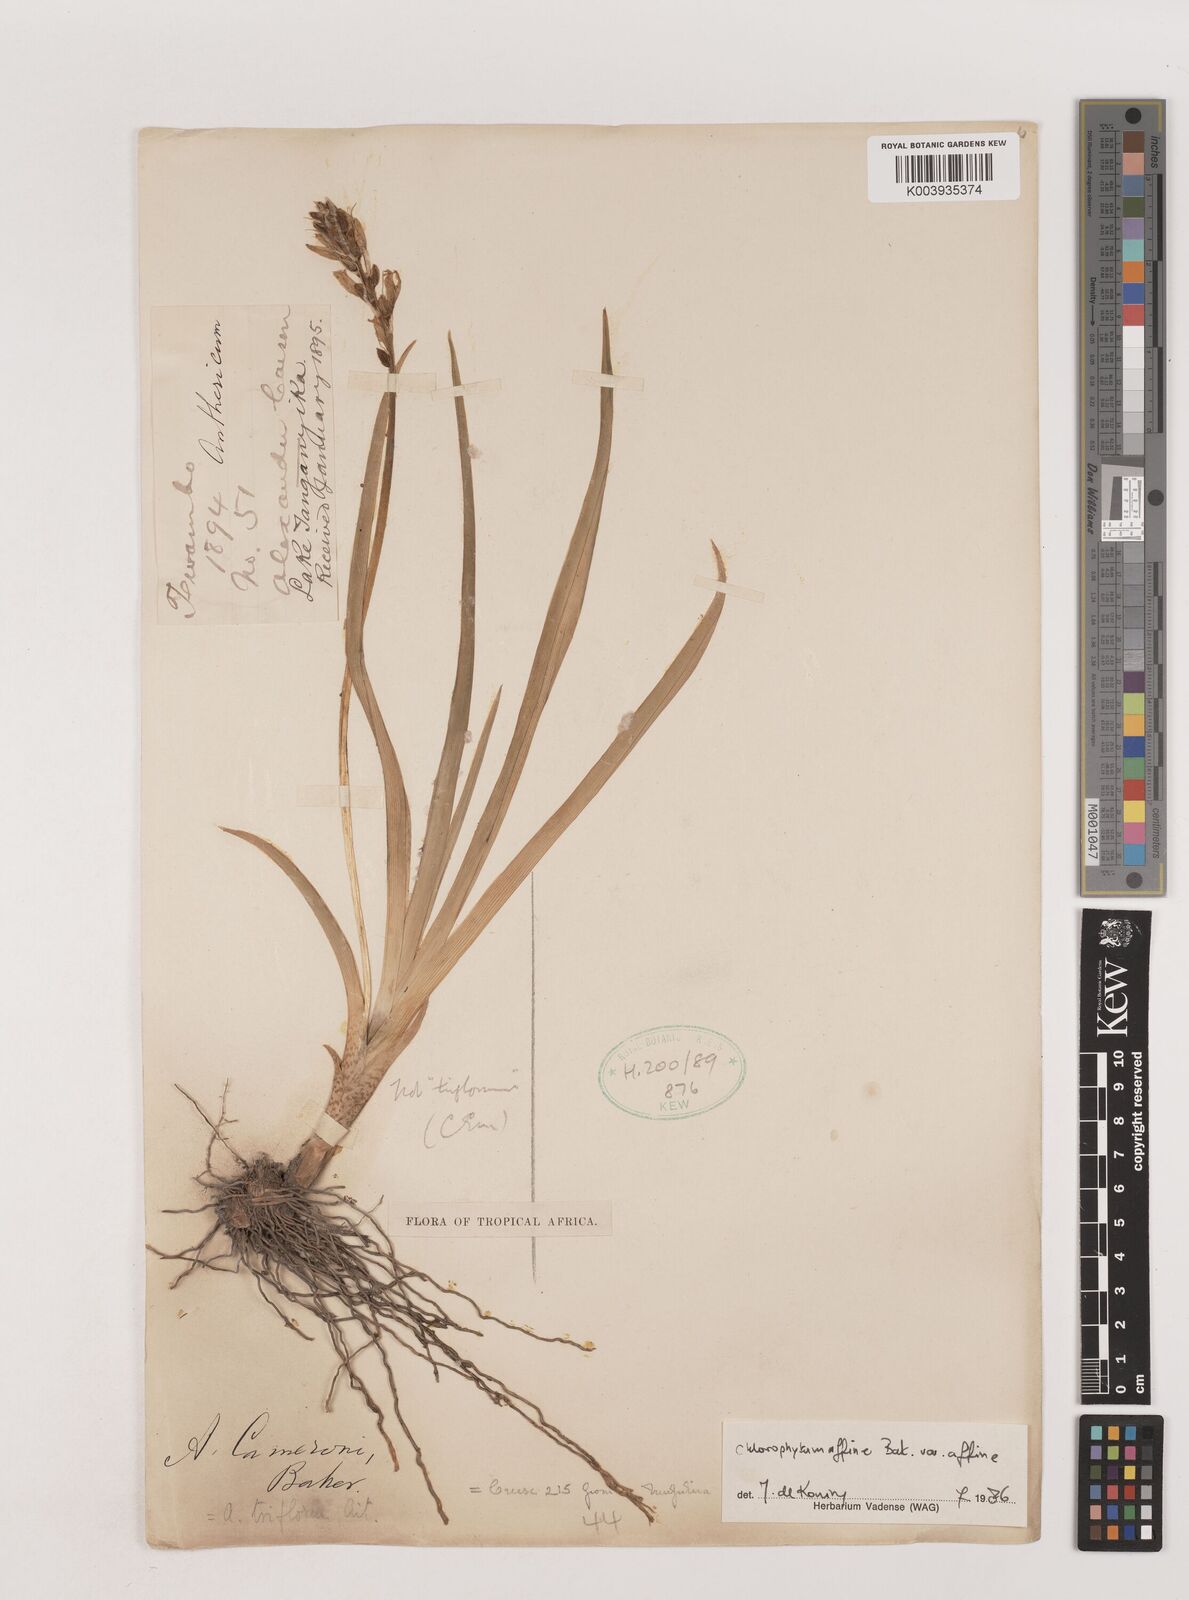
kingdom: Plantae
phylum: Tracheophyta
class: Liliopsida
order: Asparagales
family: Asparagaceae
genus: Chlorophytum
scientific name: Chlorophytum affine
